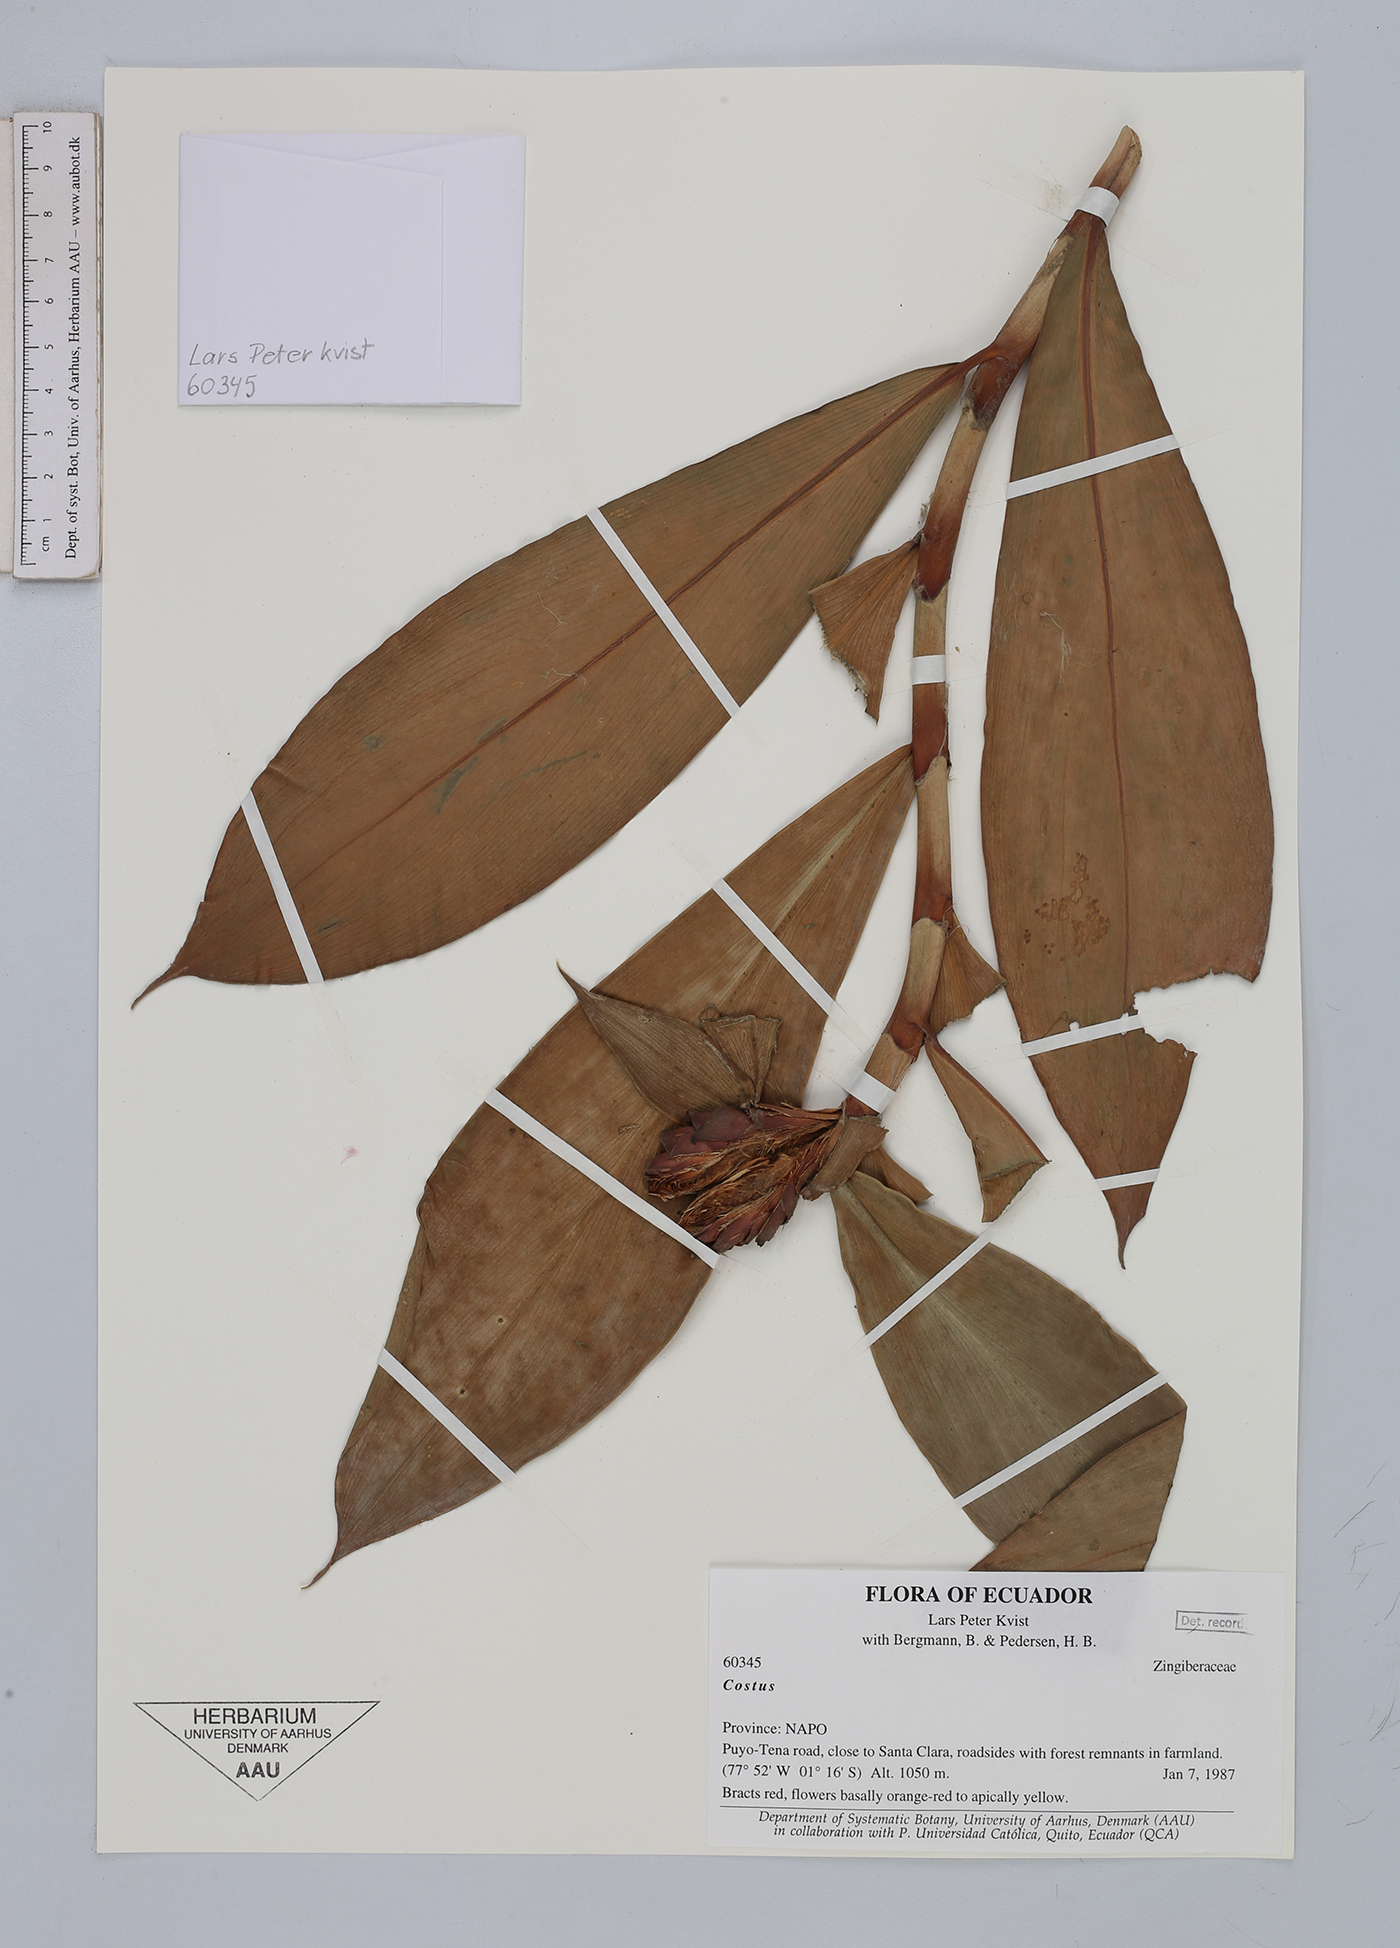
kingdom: Plantae
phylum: Tracheophyta
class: Liliopsida
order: Zingiberales
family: Costaceae
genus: Costus
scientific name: Costus scaber
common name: Spiral head ginger
